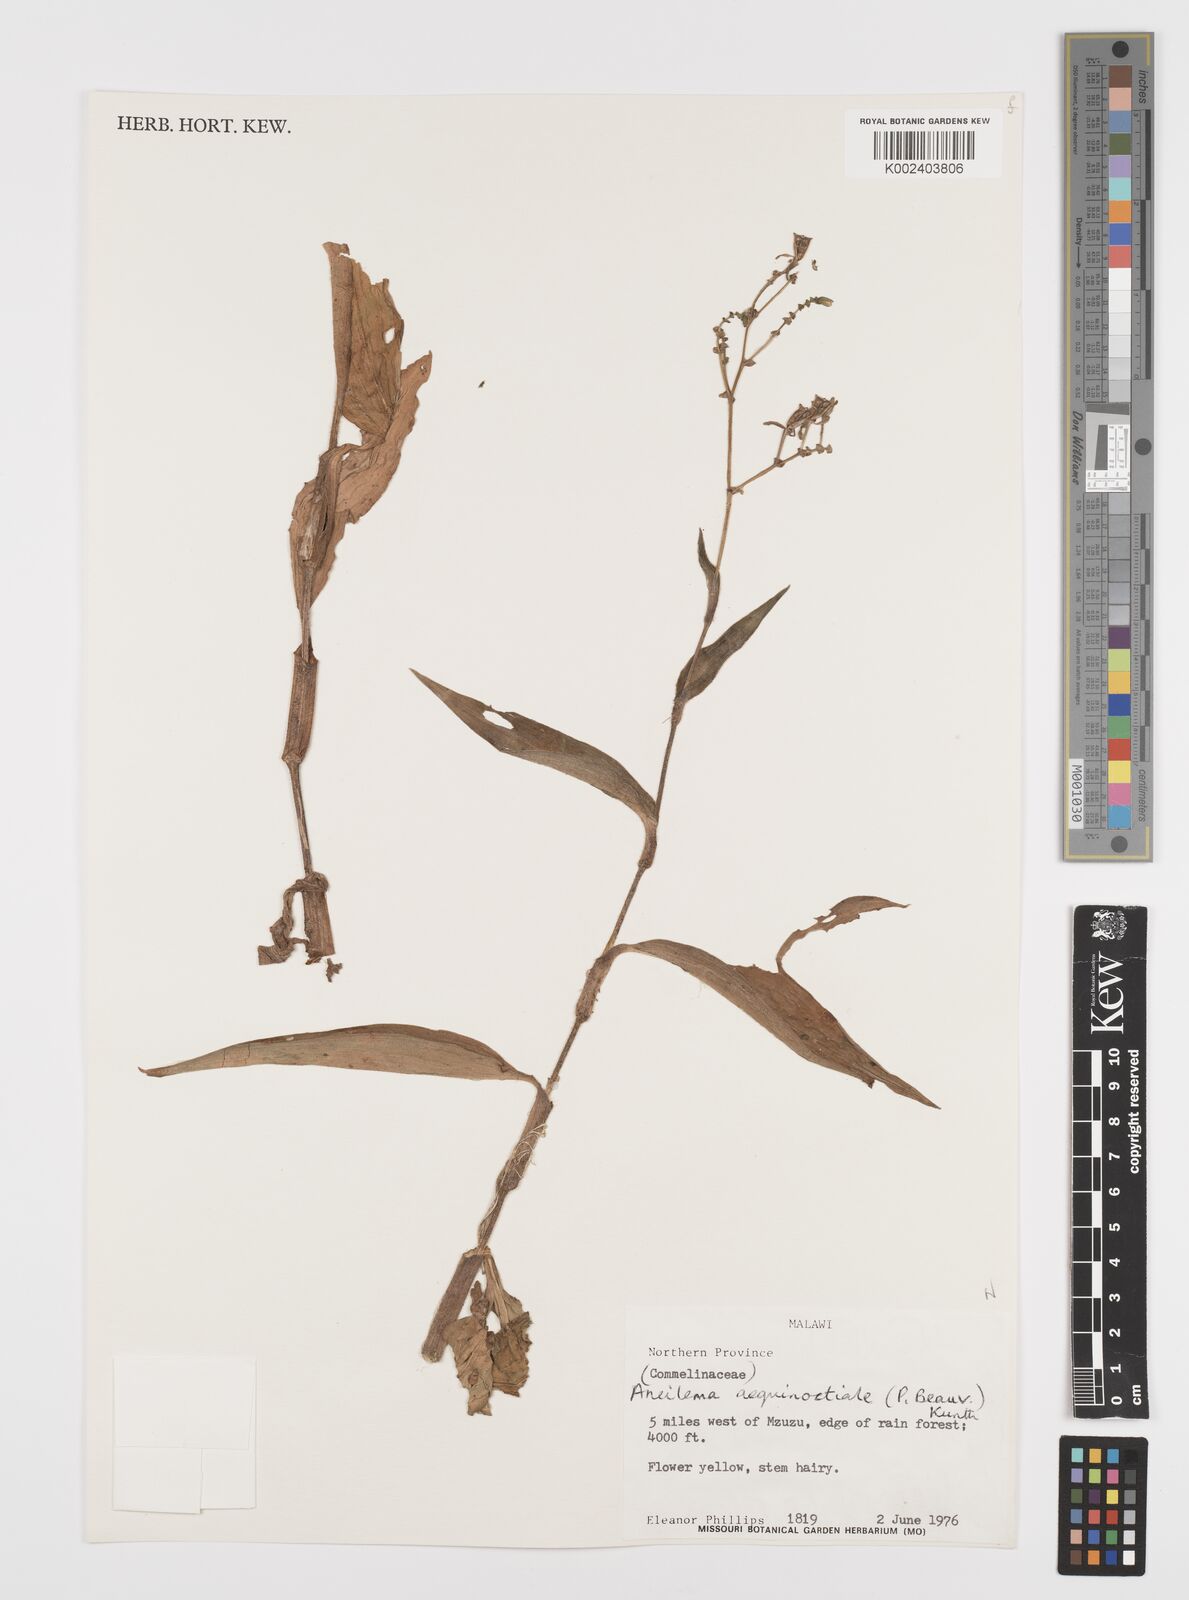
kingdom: Plantae
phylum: Tracheophyta
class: Liliopsida
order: Commelinales
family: Commelinaceae
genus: Aneilema
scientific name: Aneilema aequinoctiale
